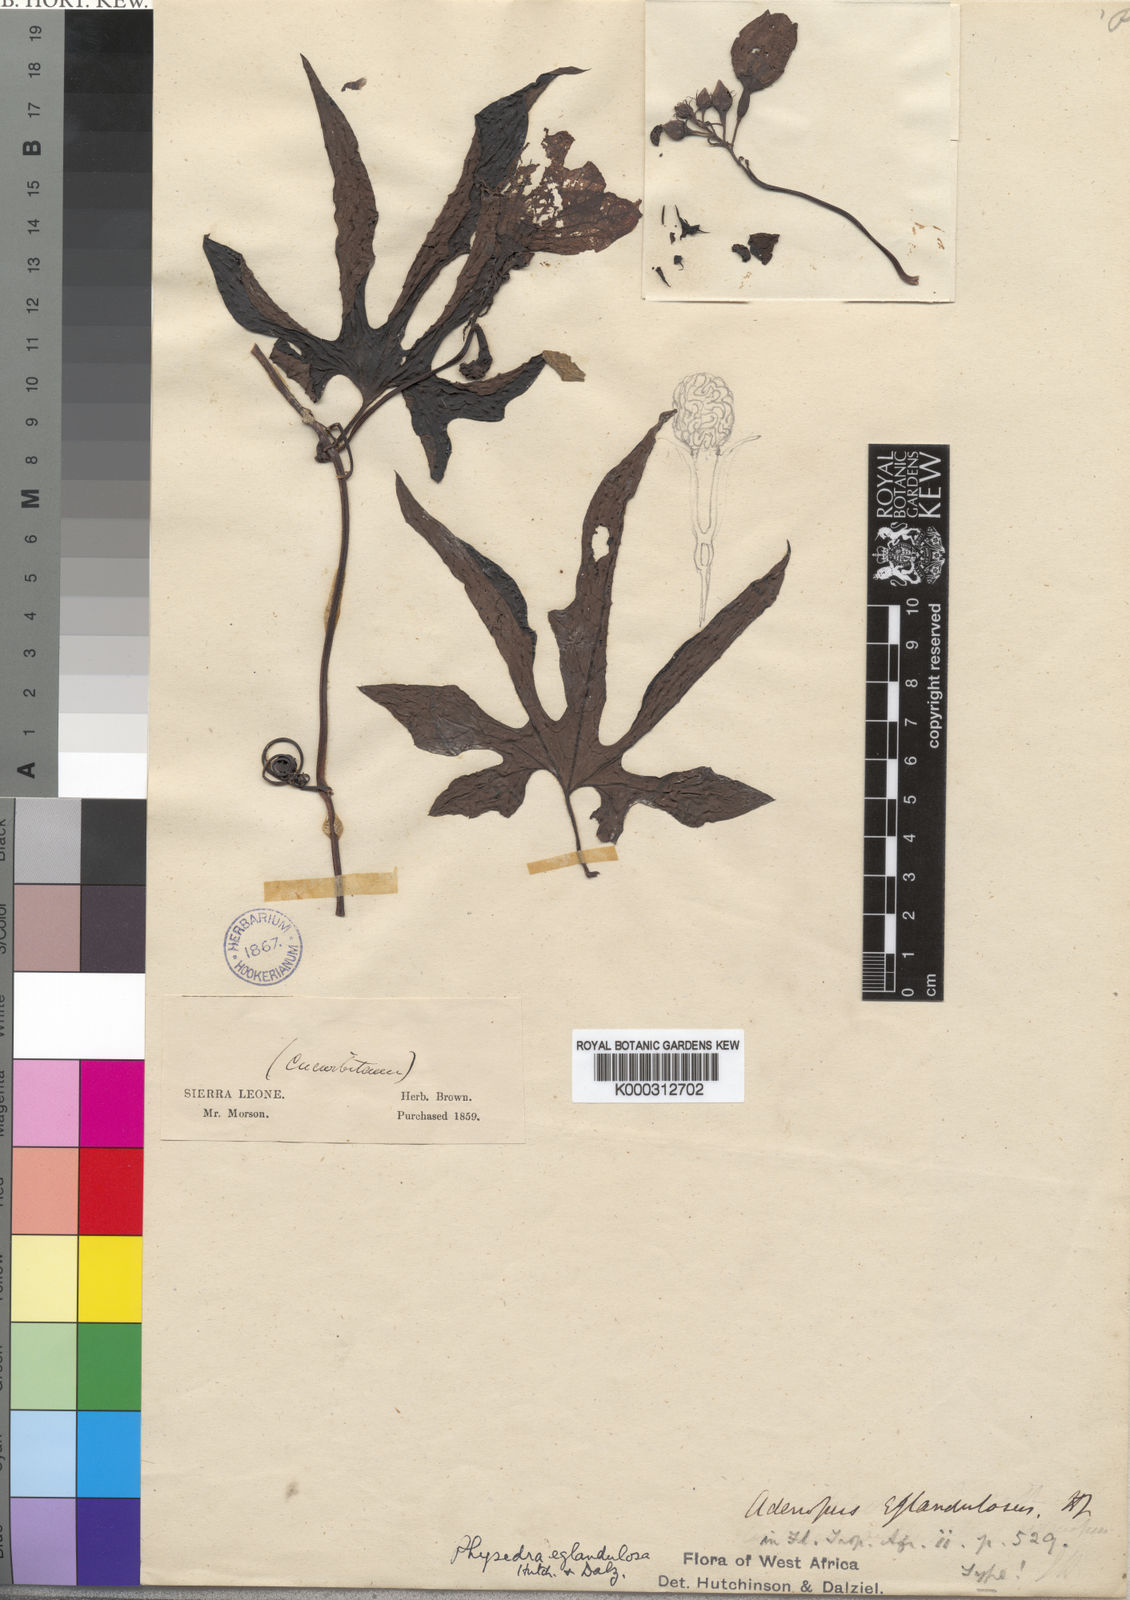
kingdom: Plantae
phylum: Tracheophyta
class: Magnoliopsida
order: Cucurbitales
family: Cucurbitaceae
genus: Ruthalicia
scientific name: Ruthalicia eglandulosa
